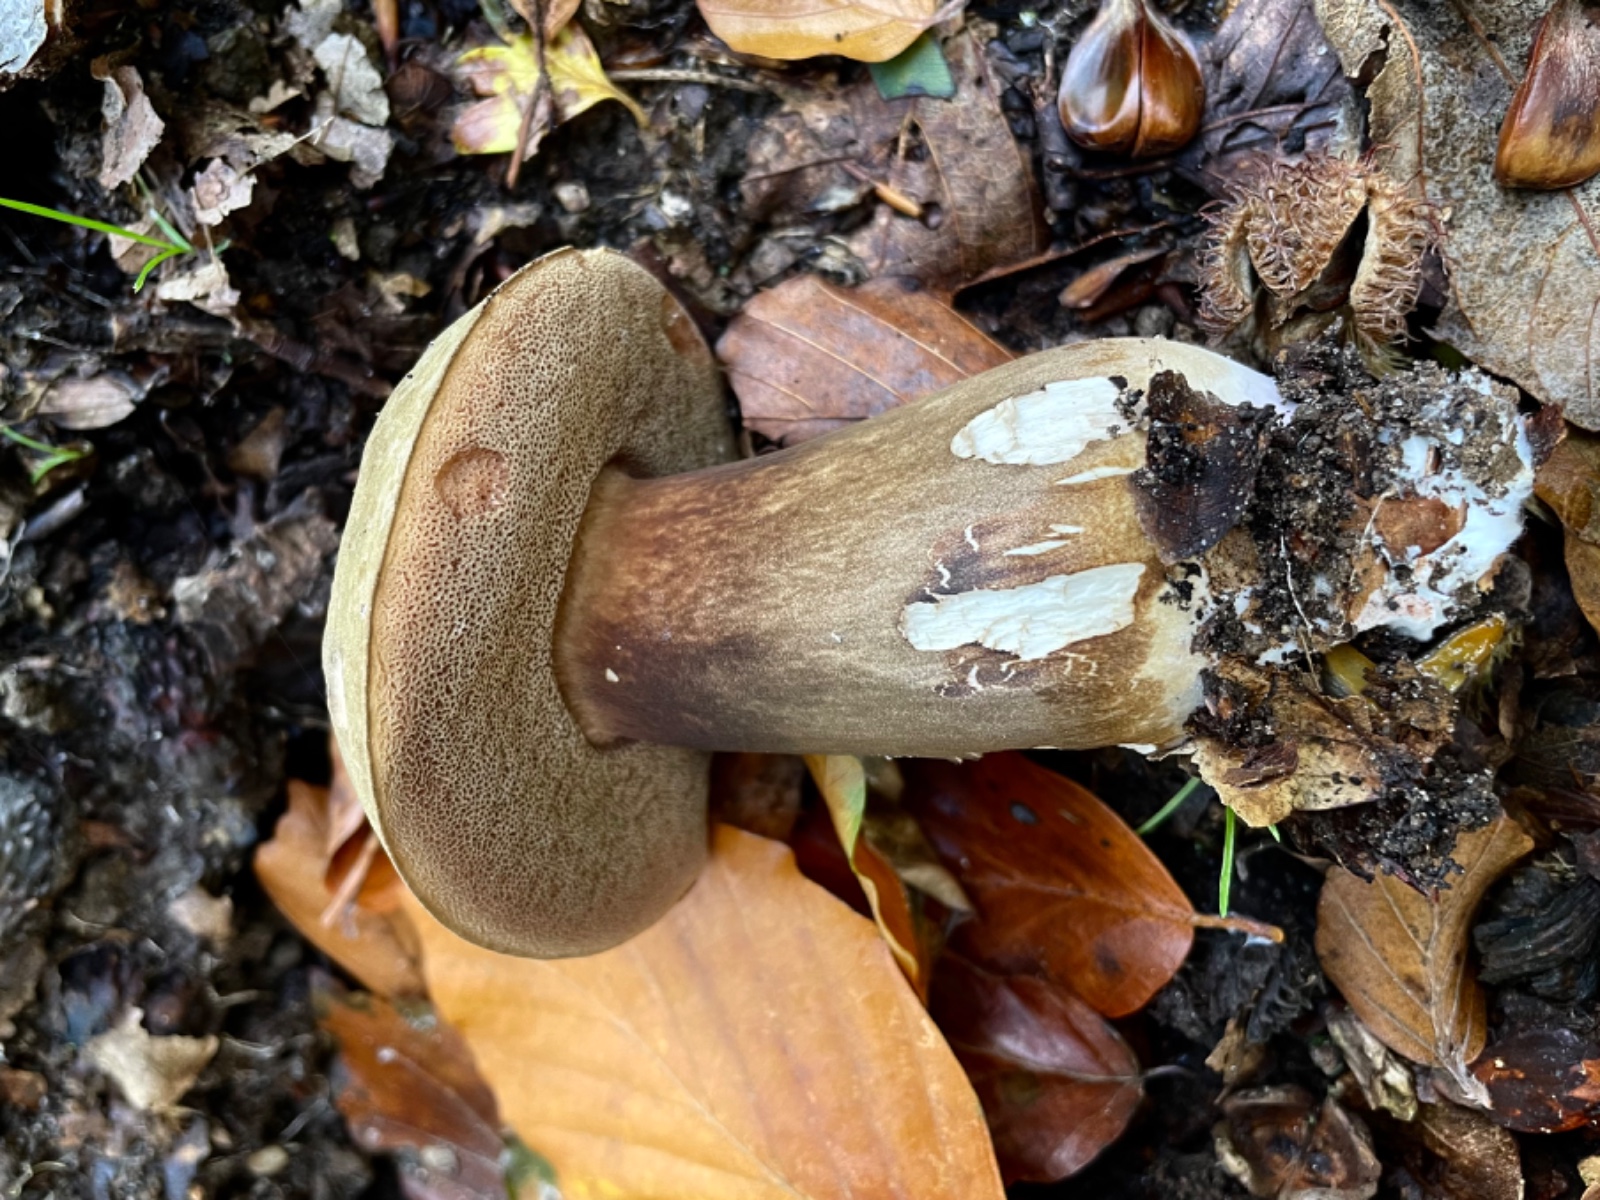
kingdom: Fungi
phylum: Basidiomycota
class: Agaricomycetes
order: Boletales
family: Boletaceae
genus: Porphyrellus
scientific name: Porphyrellus porphyrosporus
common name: sodrørhat
